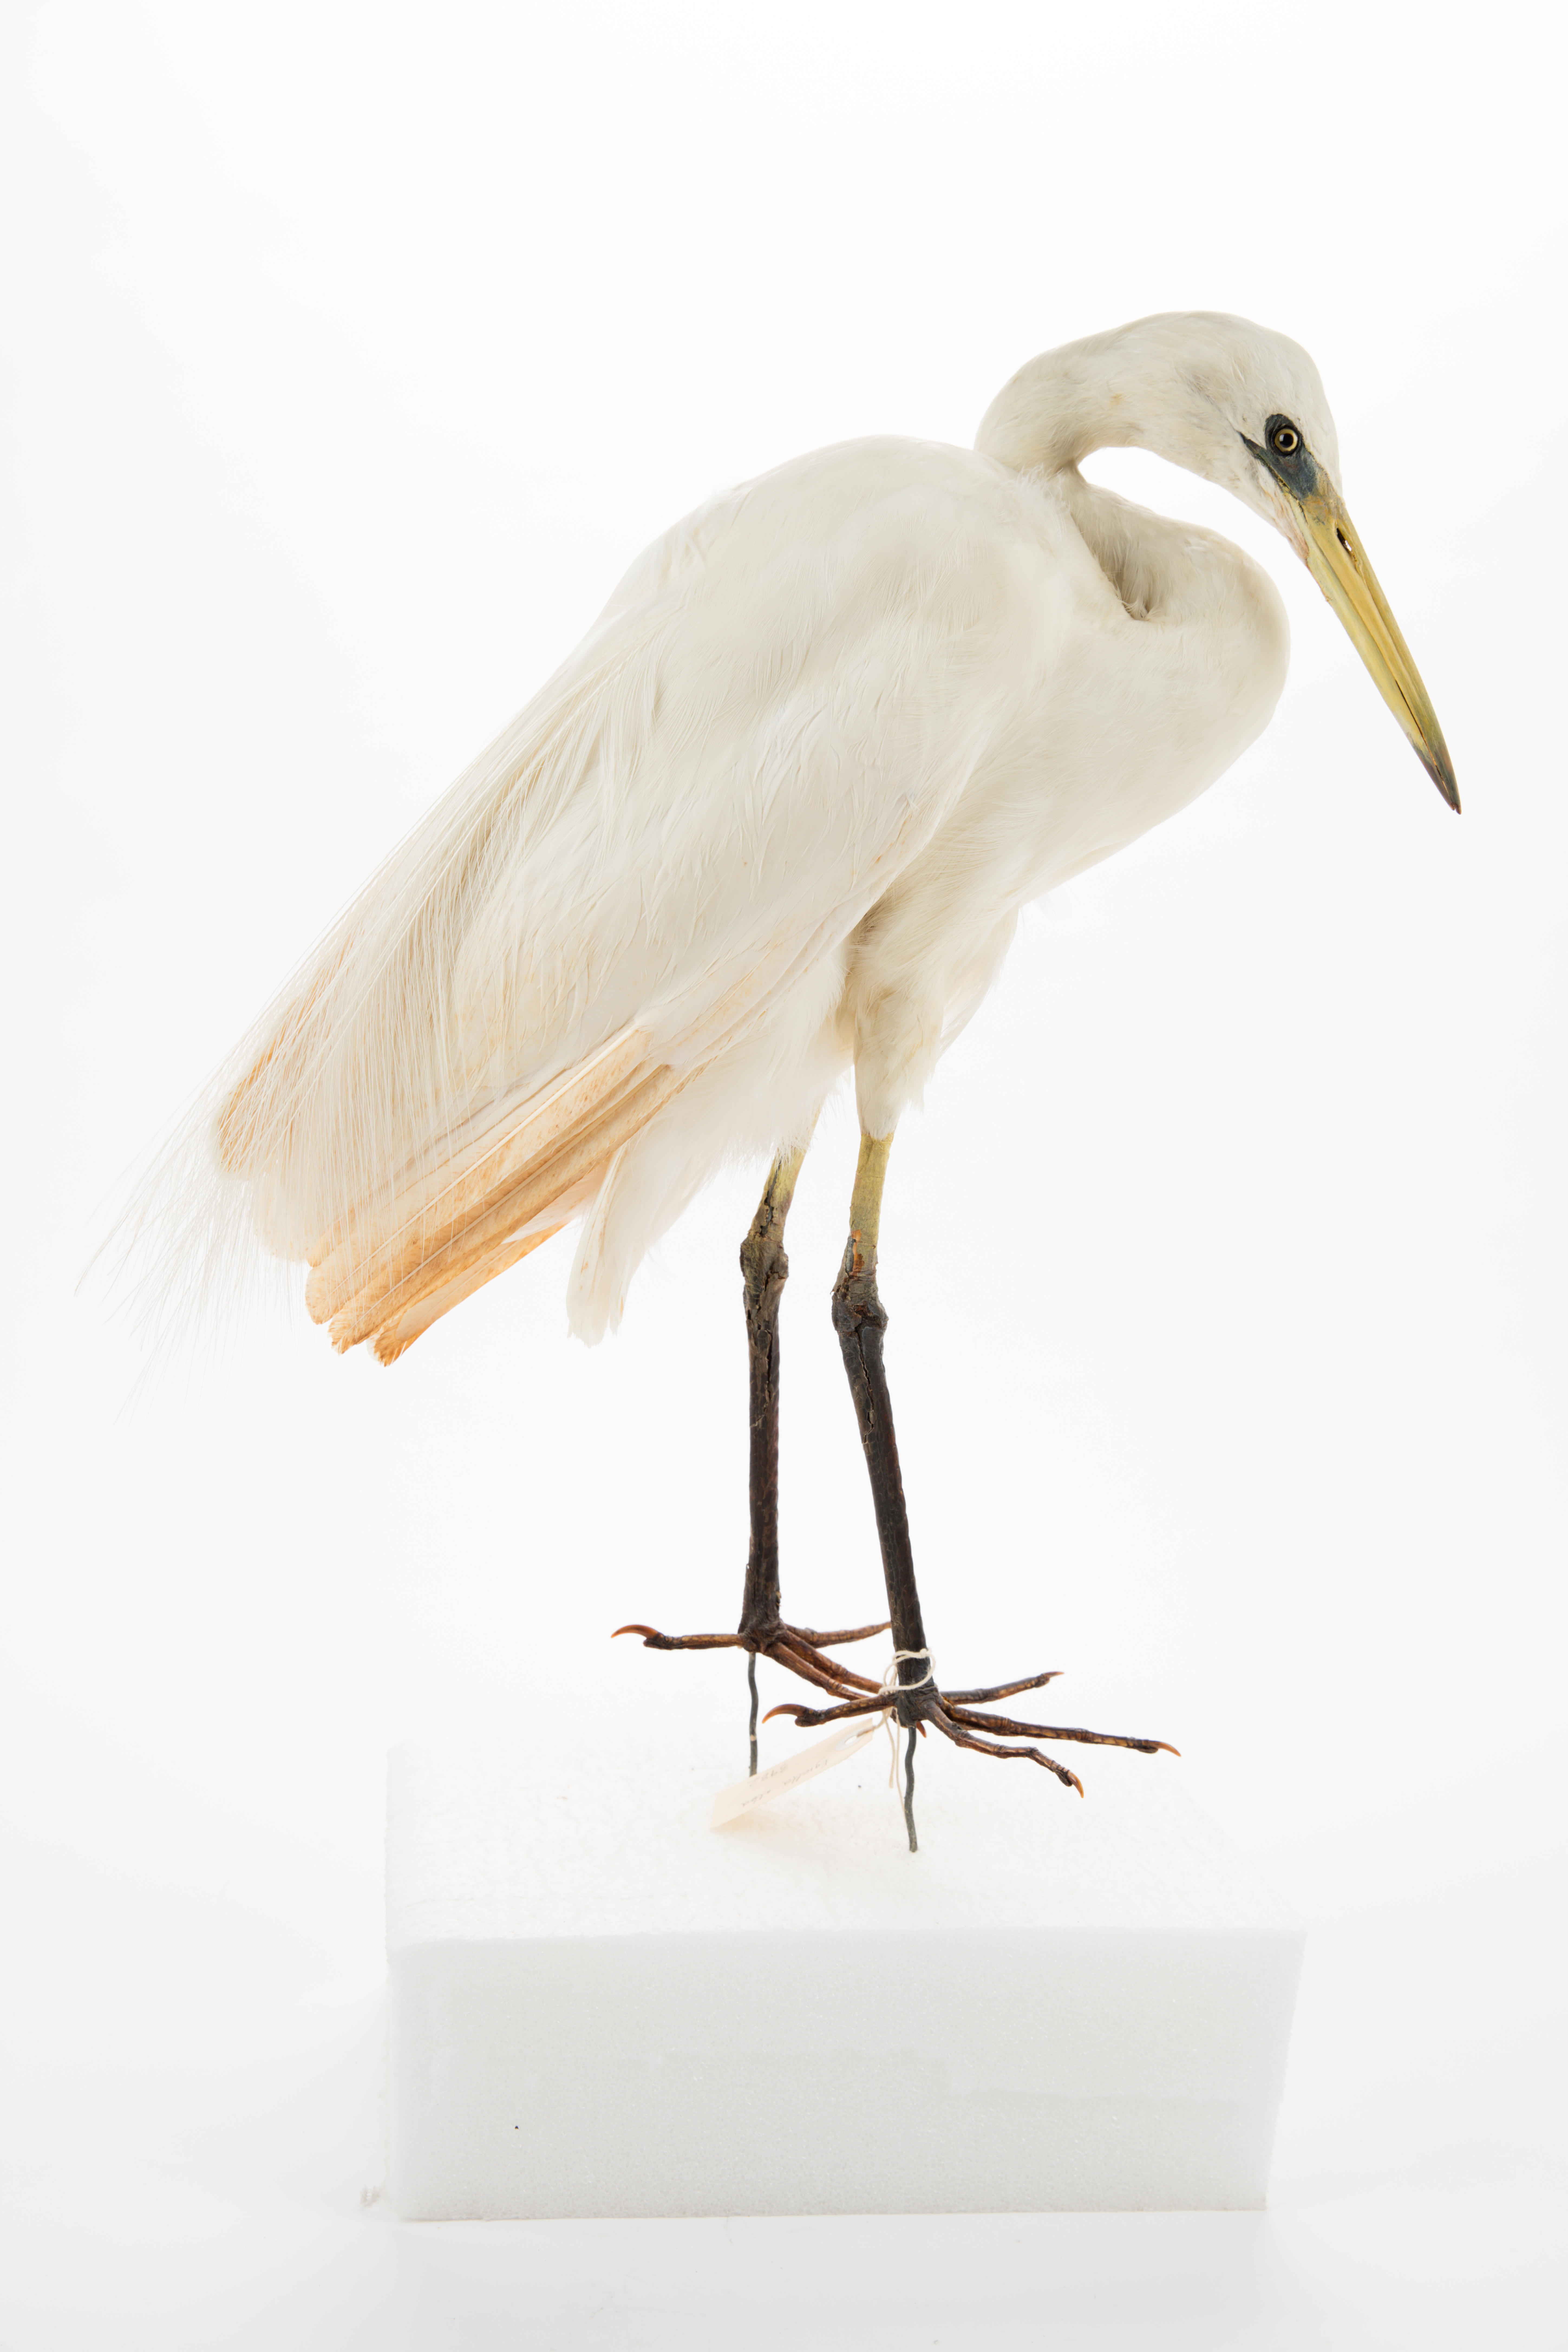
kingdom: Animalia
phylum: Chordata
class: Aves
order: Pelecaniformes
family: Ardeidae
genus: Ardea
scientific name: Ardea modesta
